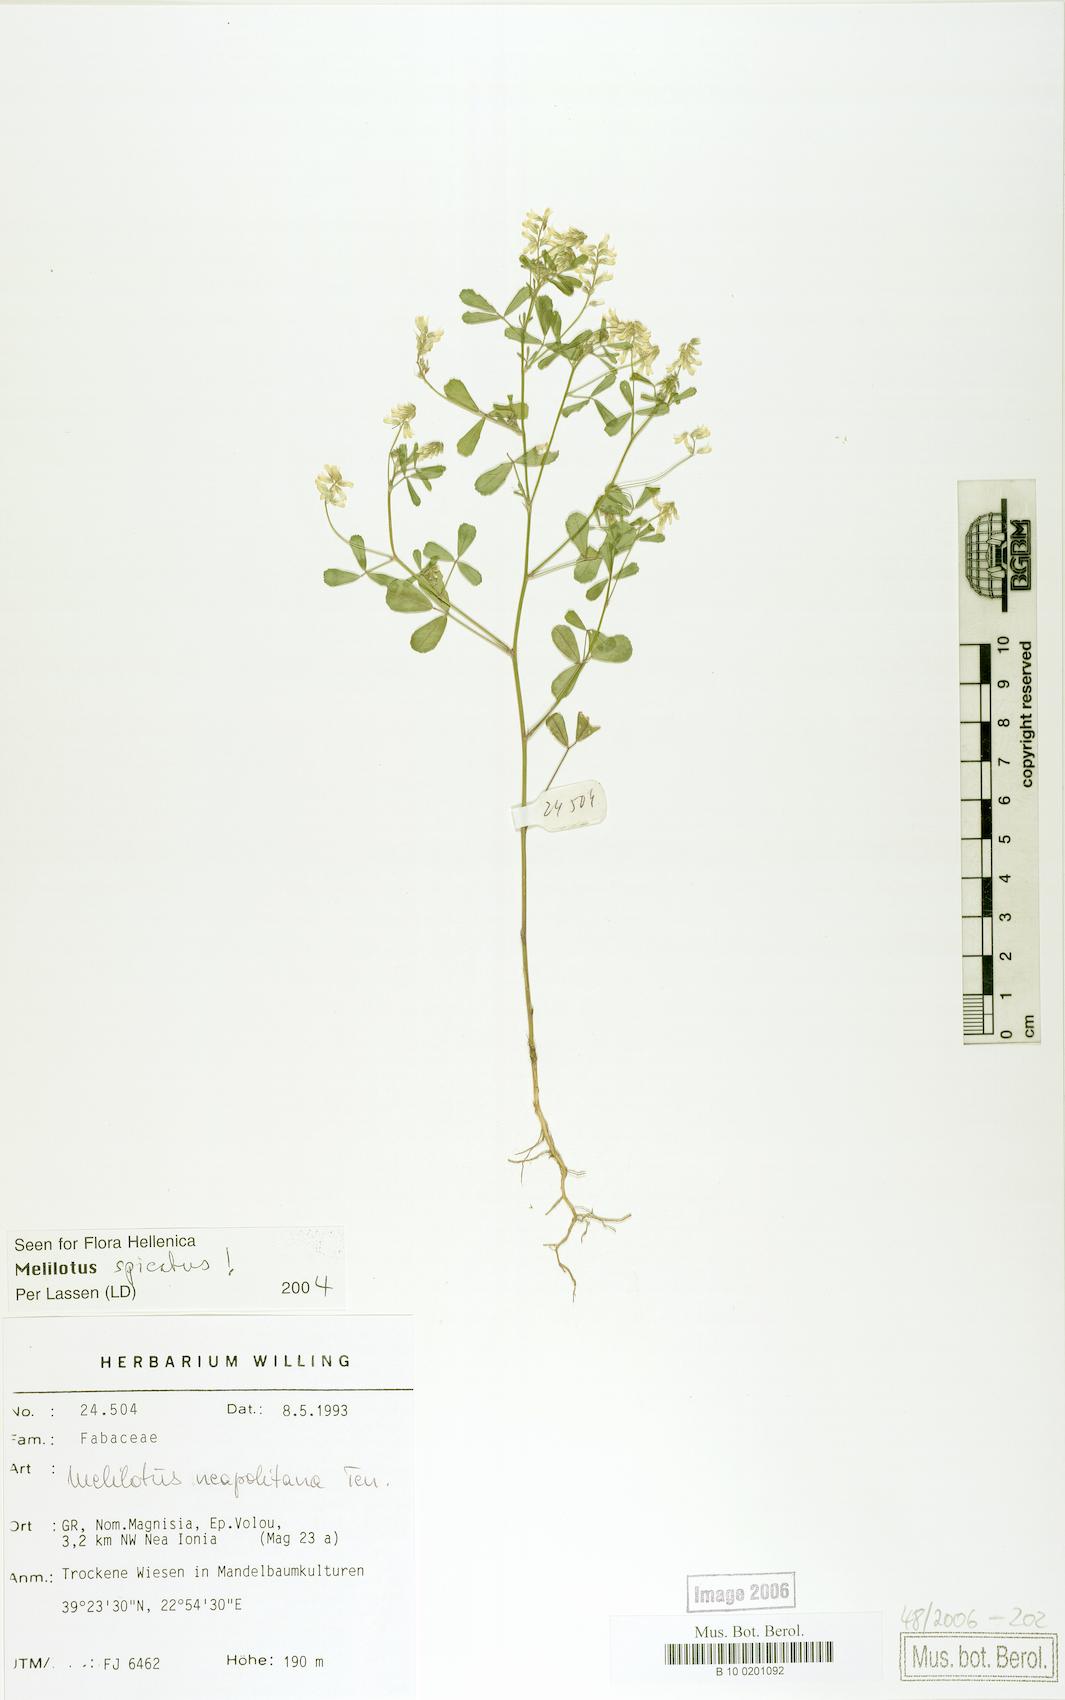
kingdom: Plantae
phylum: Tracheophyta
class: Magnoliopsida
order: Fabales
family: Fabaceae
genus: Melilotus
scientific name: Melilotus neapolitanus
